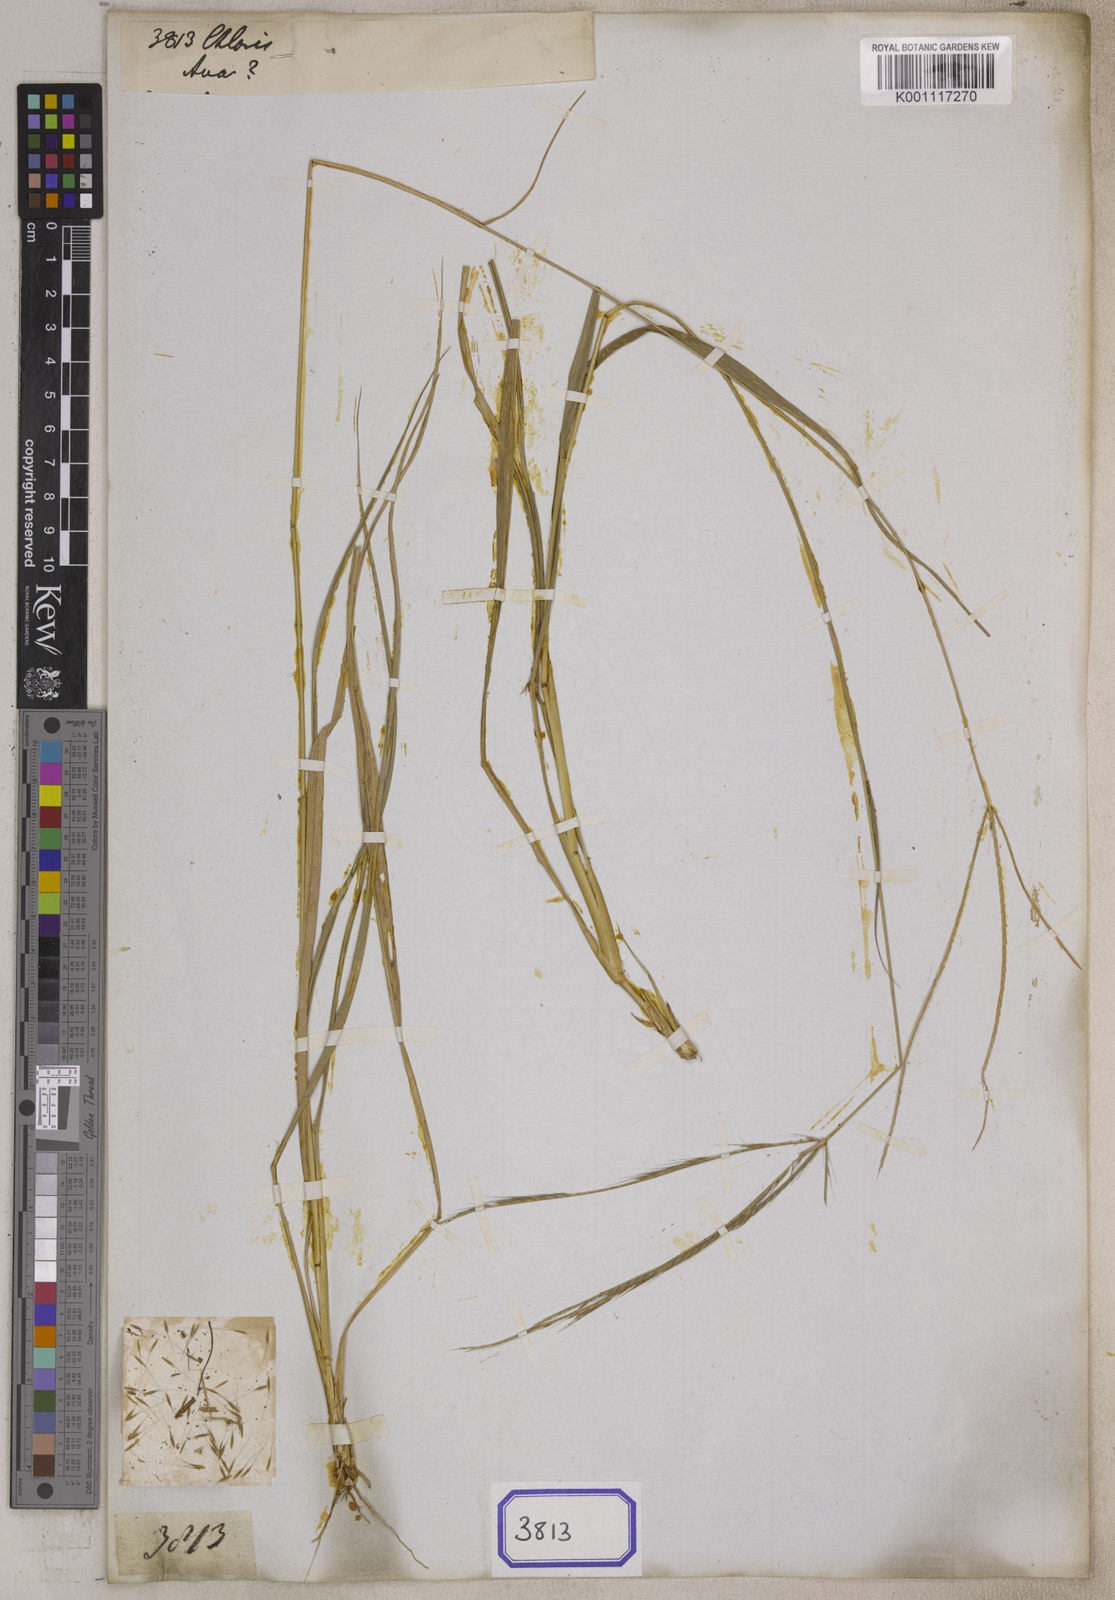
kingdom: Plantae
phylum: Tracheophyta
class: Liliopsida
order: Poales
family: Poaceae
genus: Chloris
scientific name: Chloris
